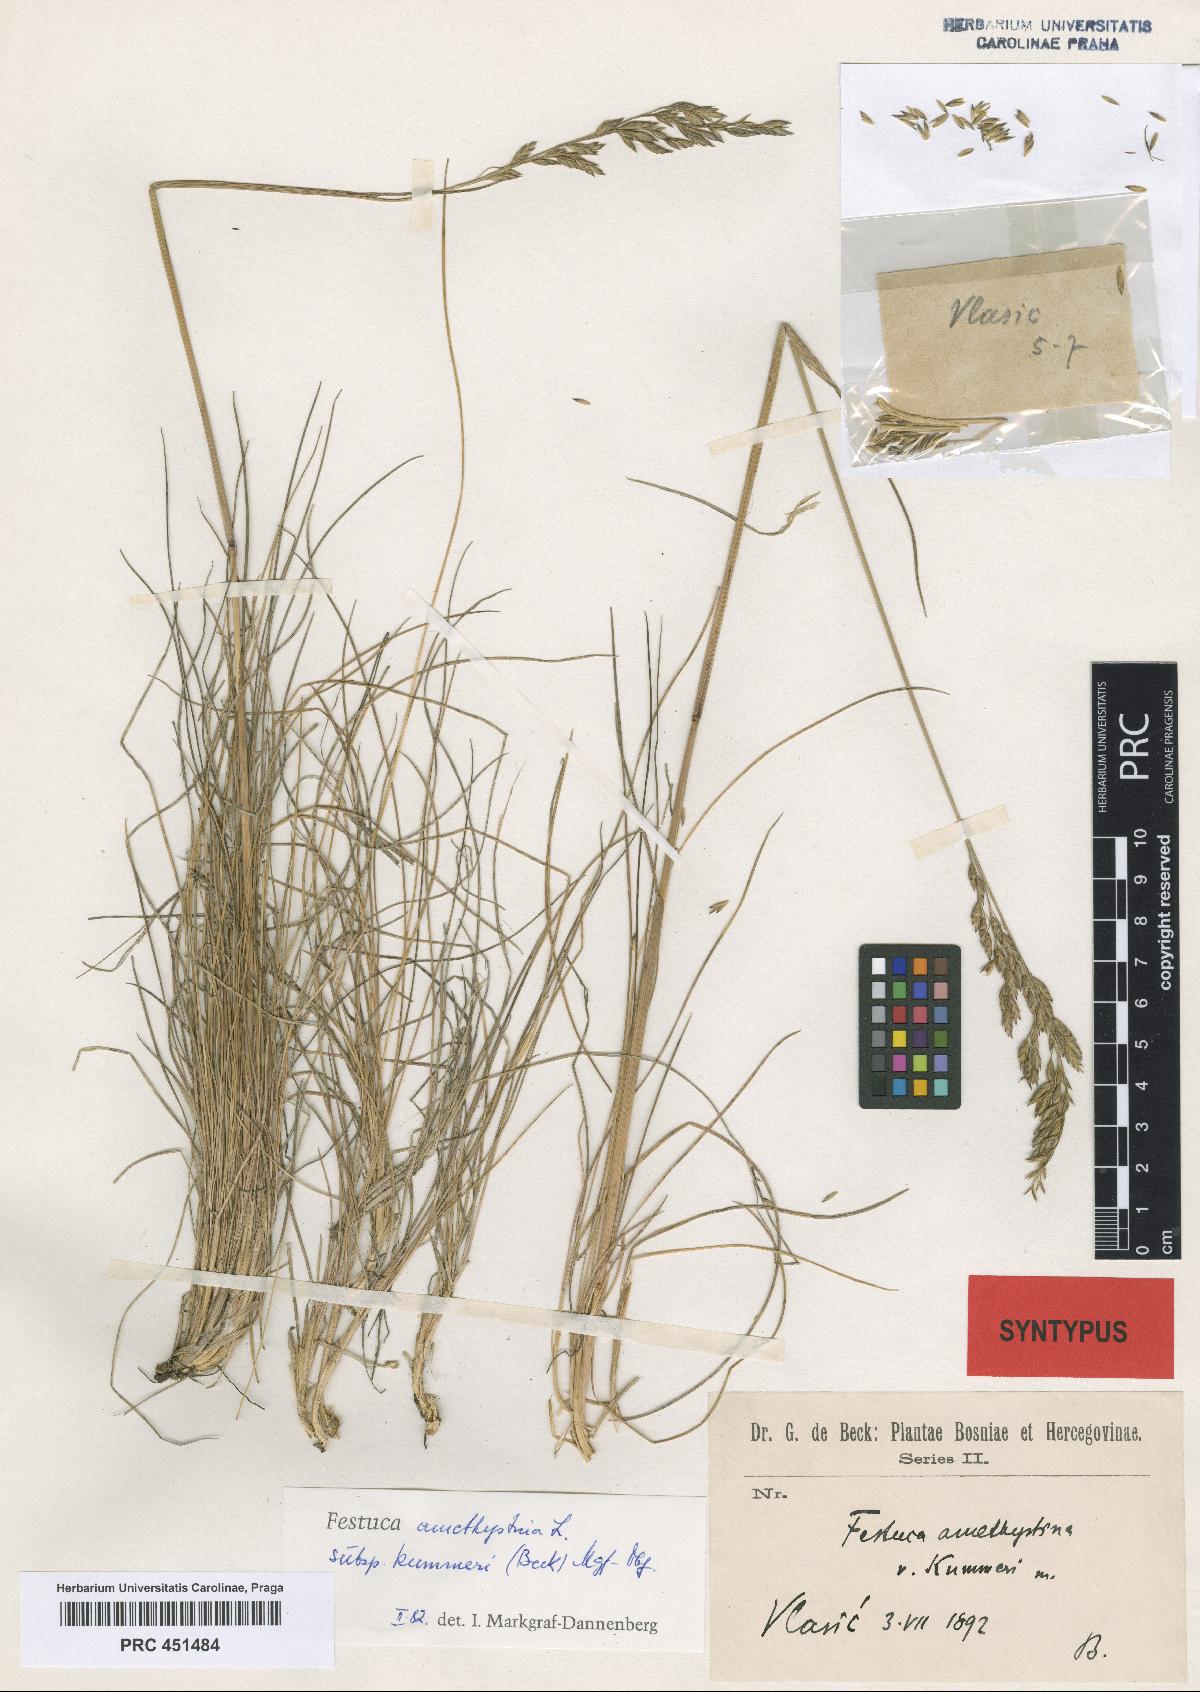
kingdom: Plantae
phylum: Tracheophyta
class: Liliopsida
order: Poales
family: Poaceae
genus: Festuca
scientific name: Festuca amethystina
